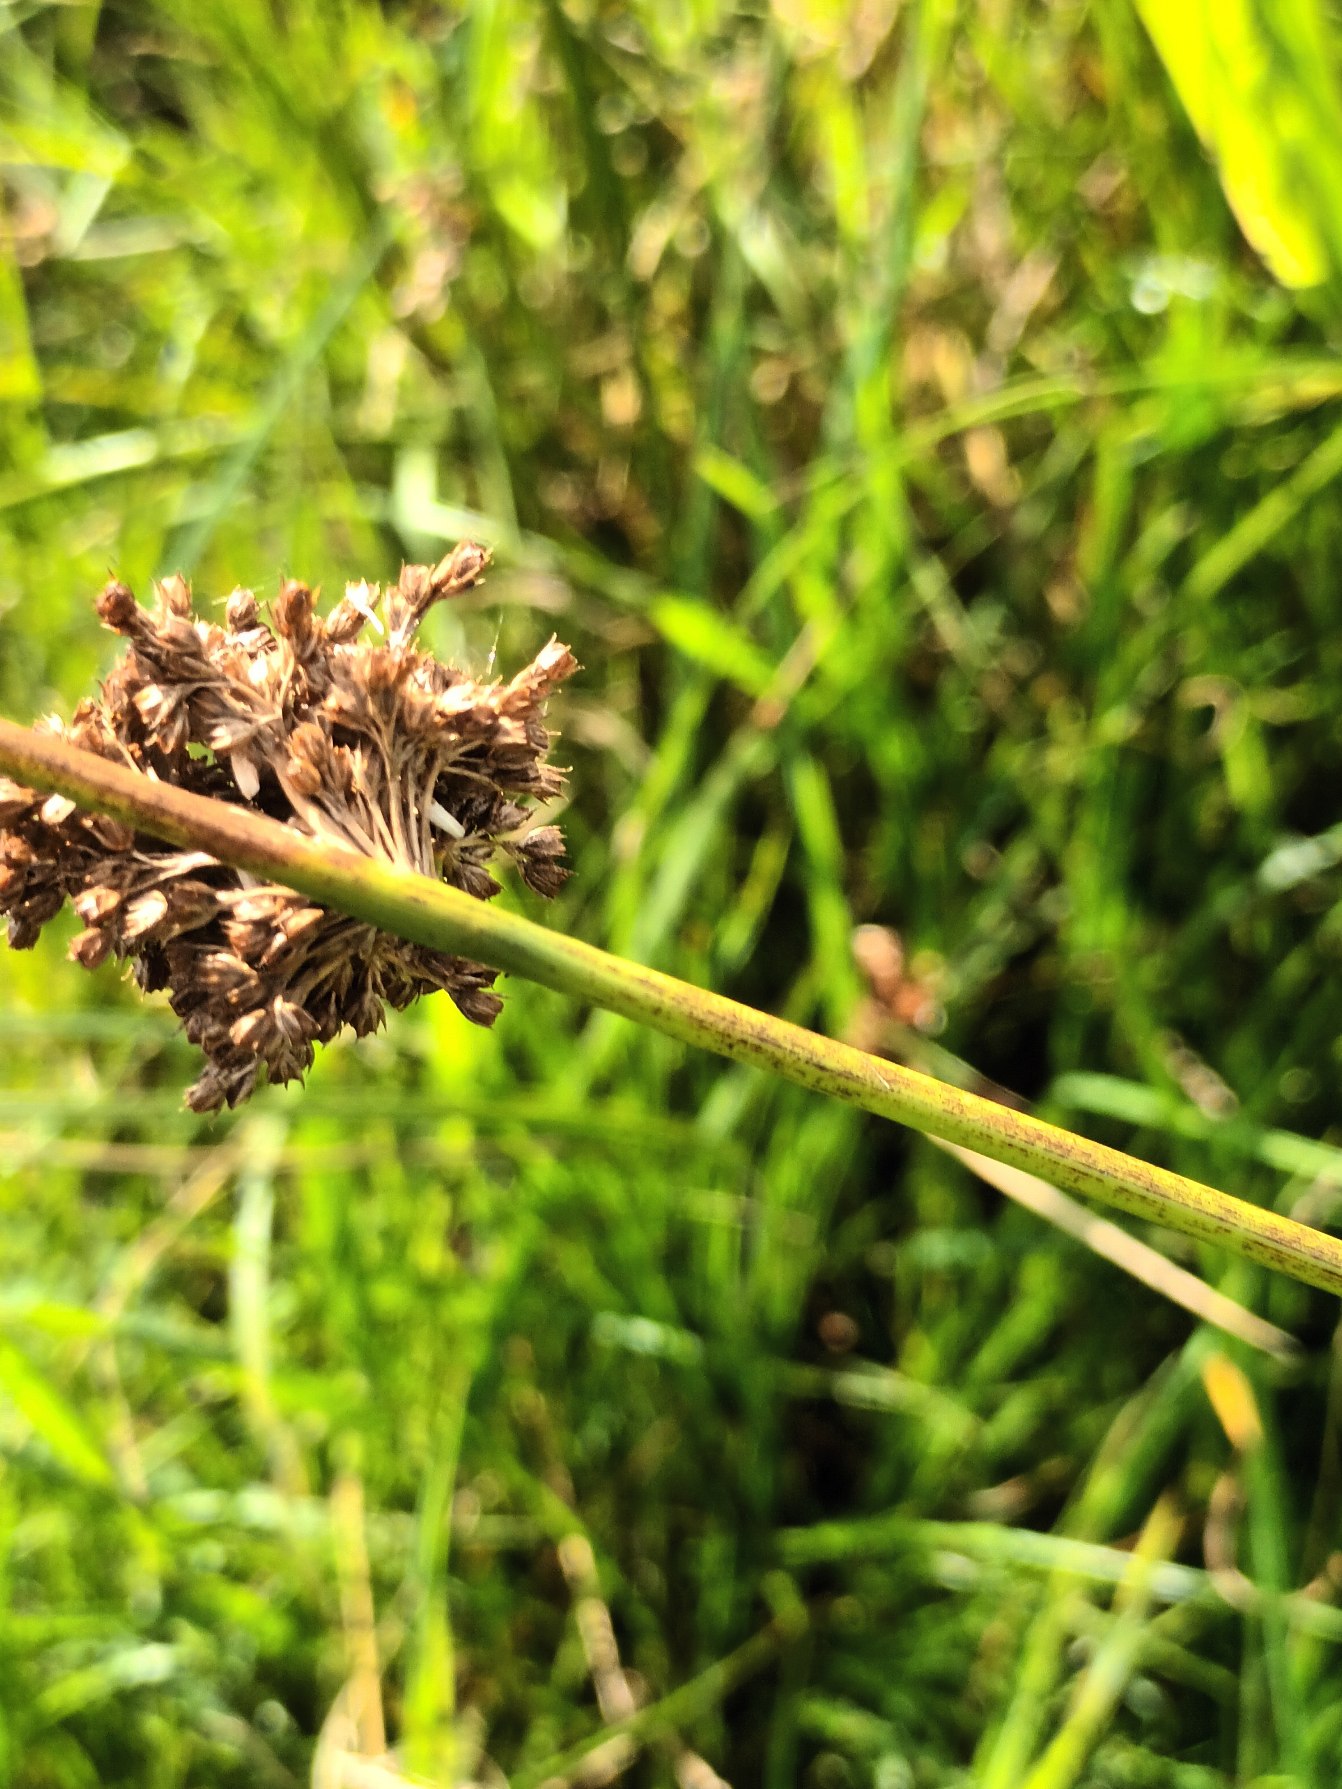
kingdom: Plantae
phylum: Tracheophyta
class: Liliopsida
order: Poales
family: Juncaceae
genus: Juncus
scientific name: Juncus effusus
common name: Lyse-siv
